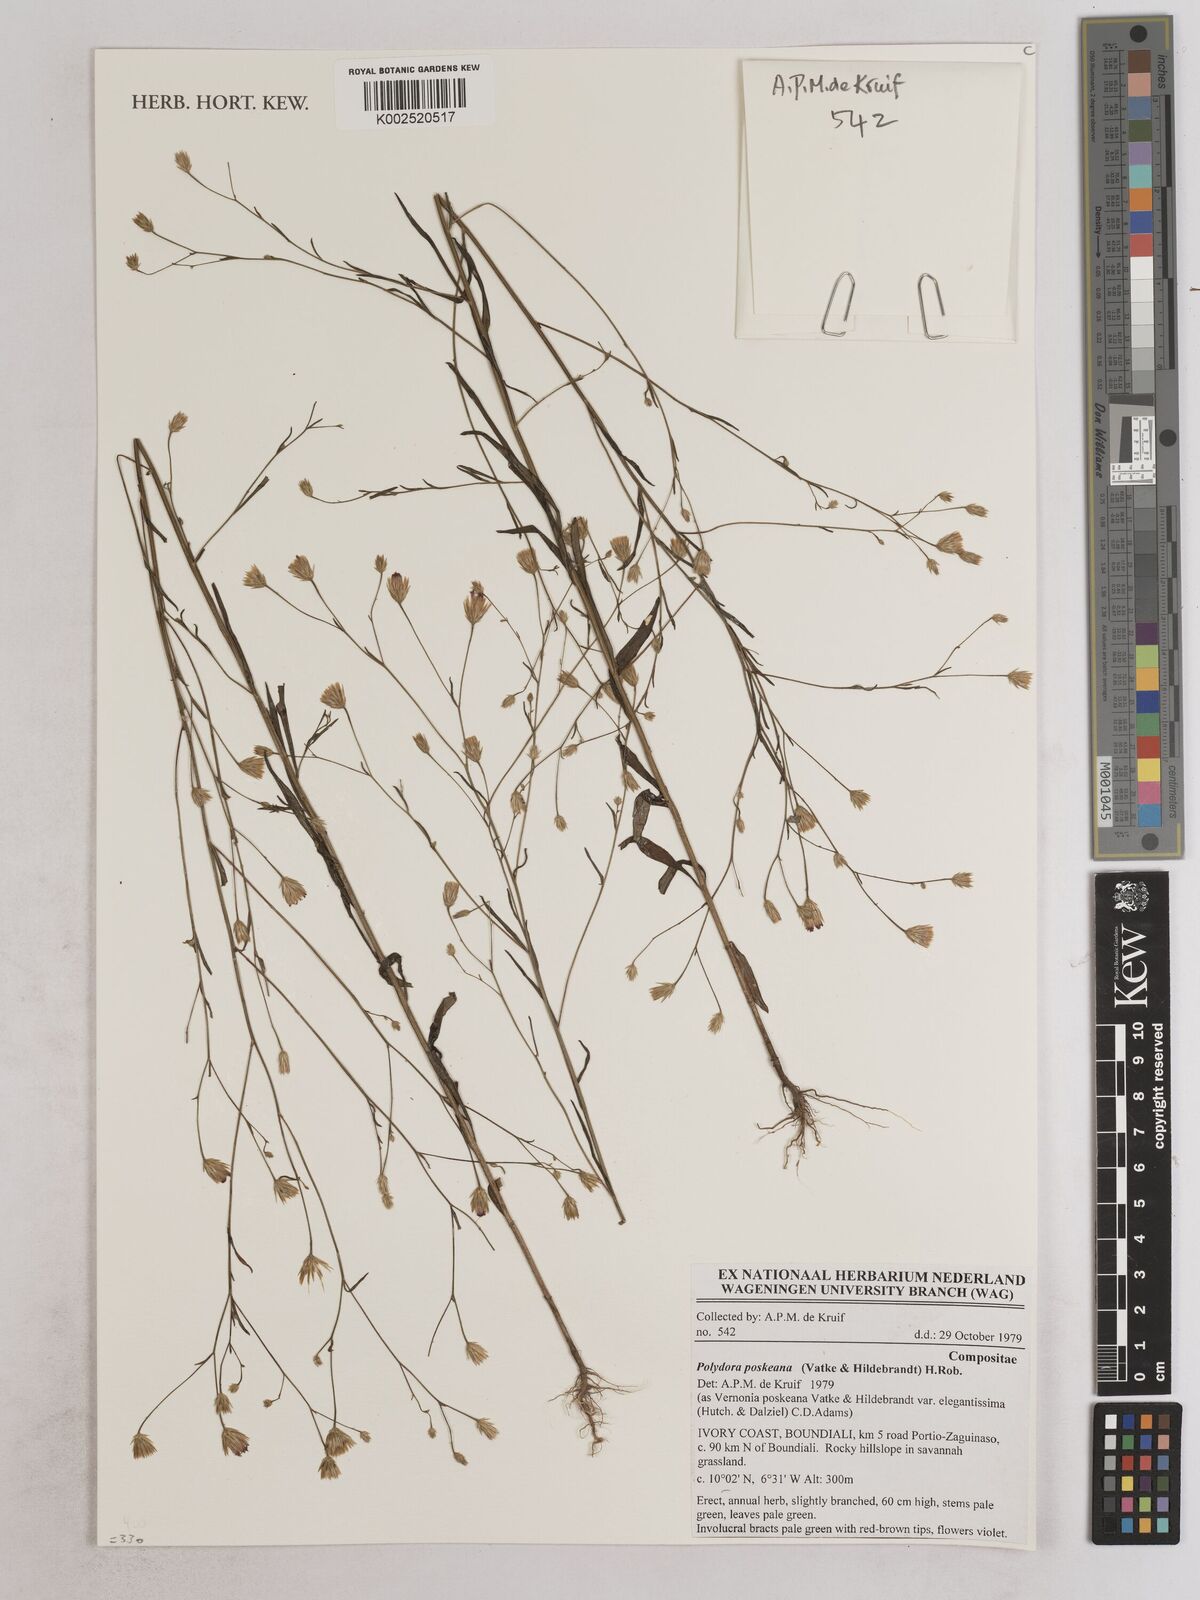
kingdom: Plantae
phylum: Tracheophyta
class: Magnoliopsida
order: Asterales
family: Asteraceae
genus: Crystallopollen
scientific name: Crystallopollen angustifolium
